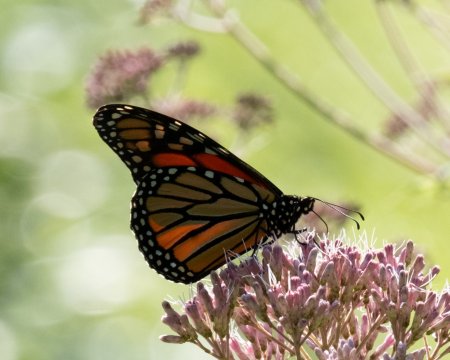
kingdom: Animalia
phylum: Arthropoda
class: Insecta
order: Lepidoptera
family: Nymphalidae
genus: Danaus
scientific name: Danaus plexippus
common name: Monarch
